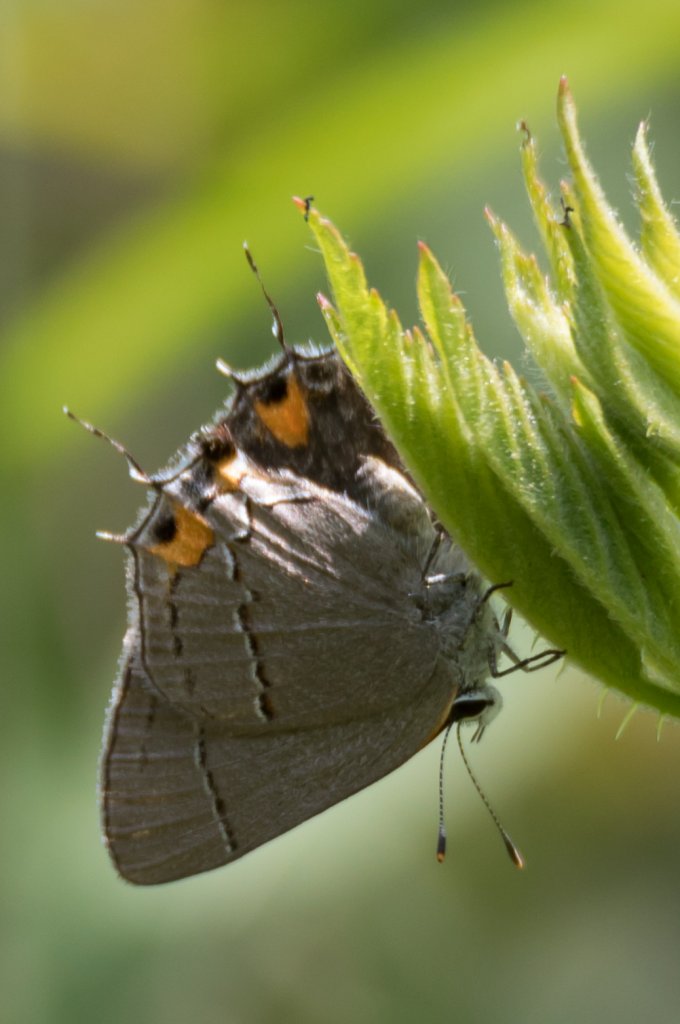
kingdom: Animalia
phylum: Arthropoda
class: Insecta
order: Lepidoptera
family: Lycaenidae
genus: Strymon
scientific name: Strymon melinus
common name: Gray Hairstreak
